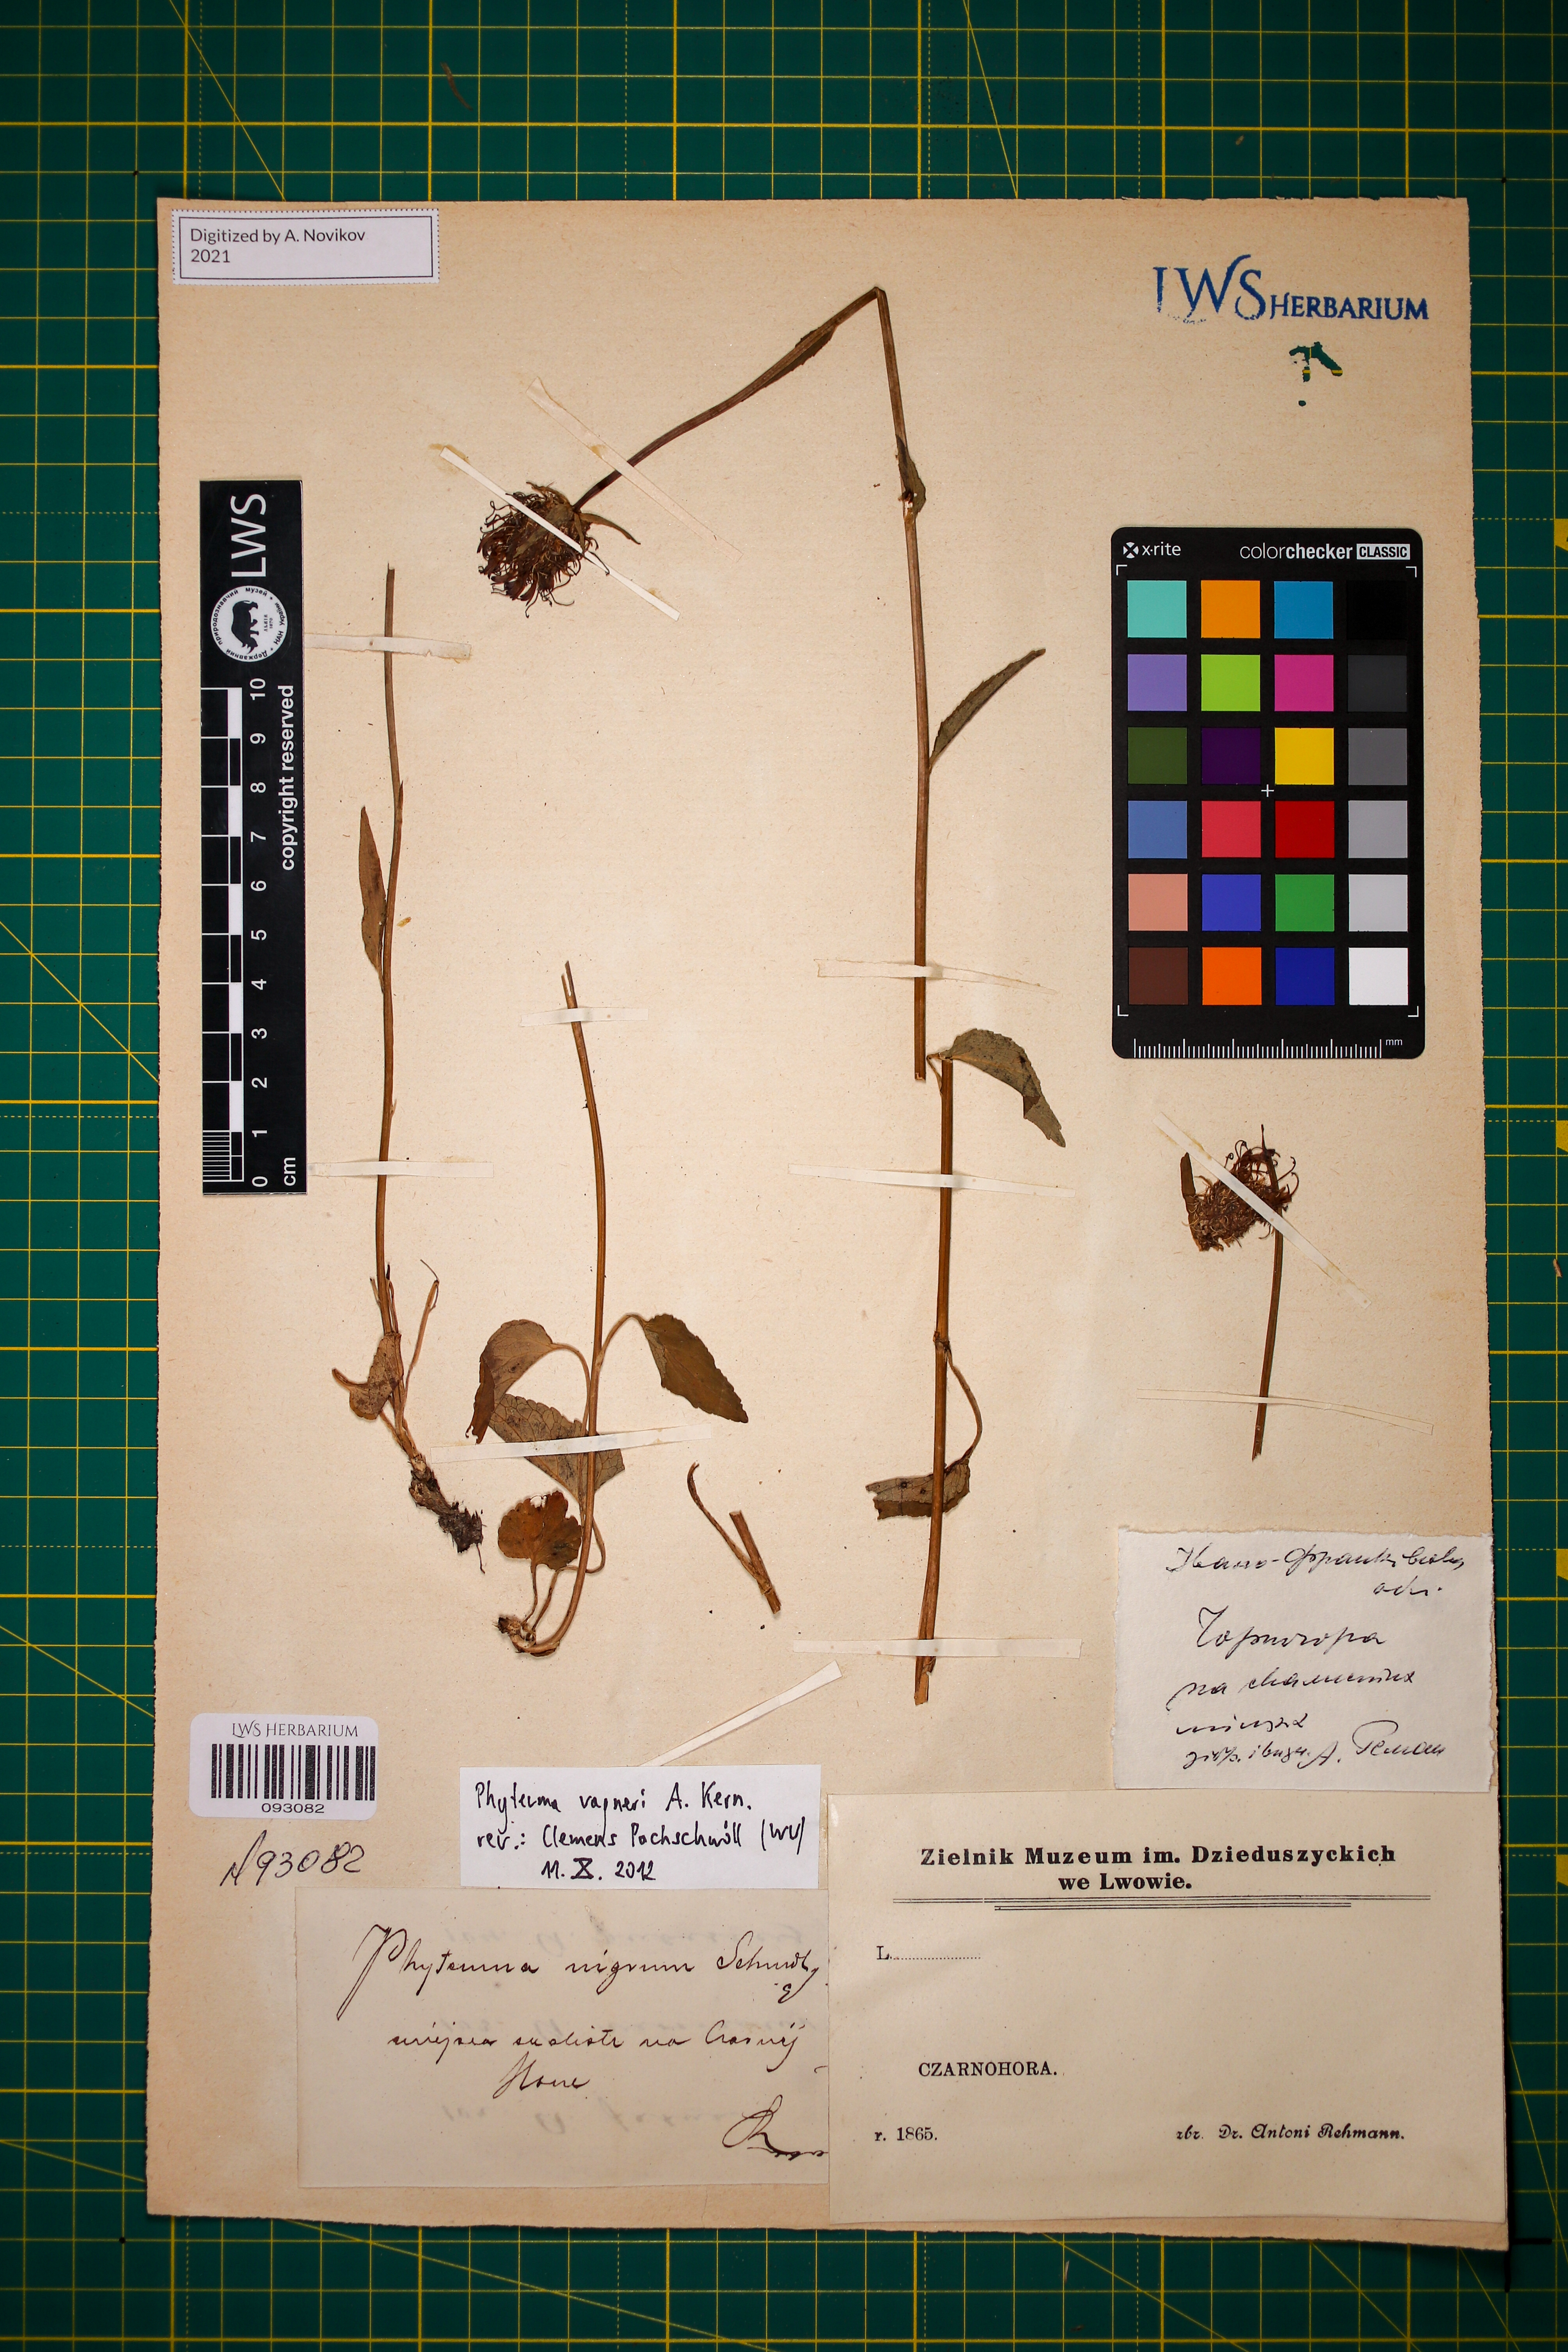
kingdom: Plantae
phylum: Tracheophyta
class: Magnoliopsida
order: Asterales
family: Campanulaceae
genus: Phyteuma
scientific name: Phyteuma vagneri
